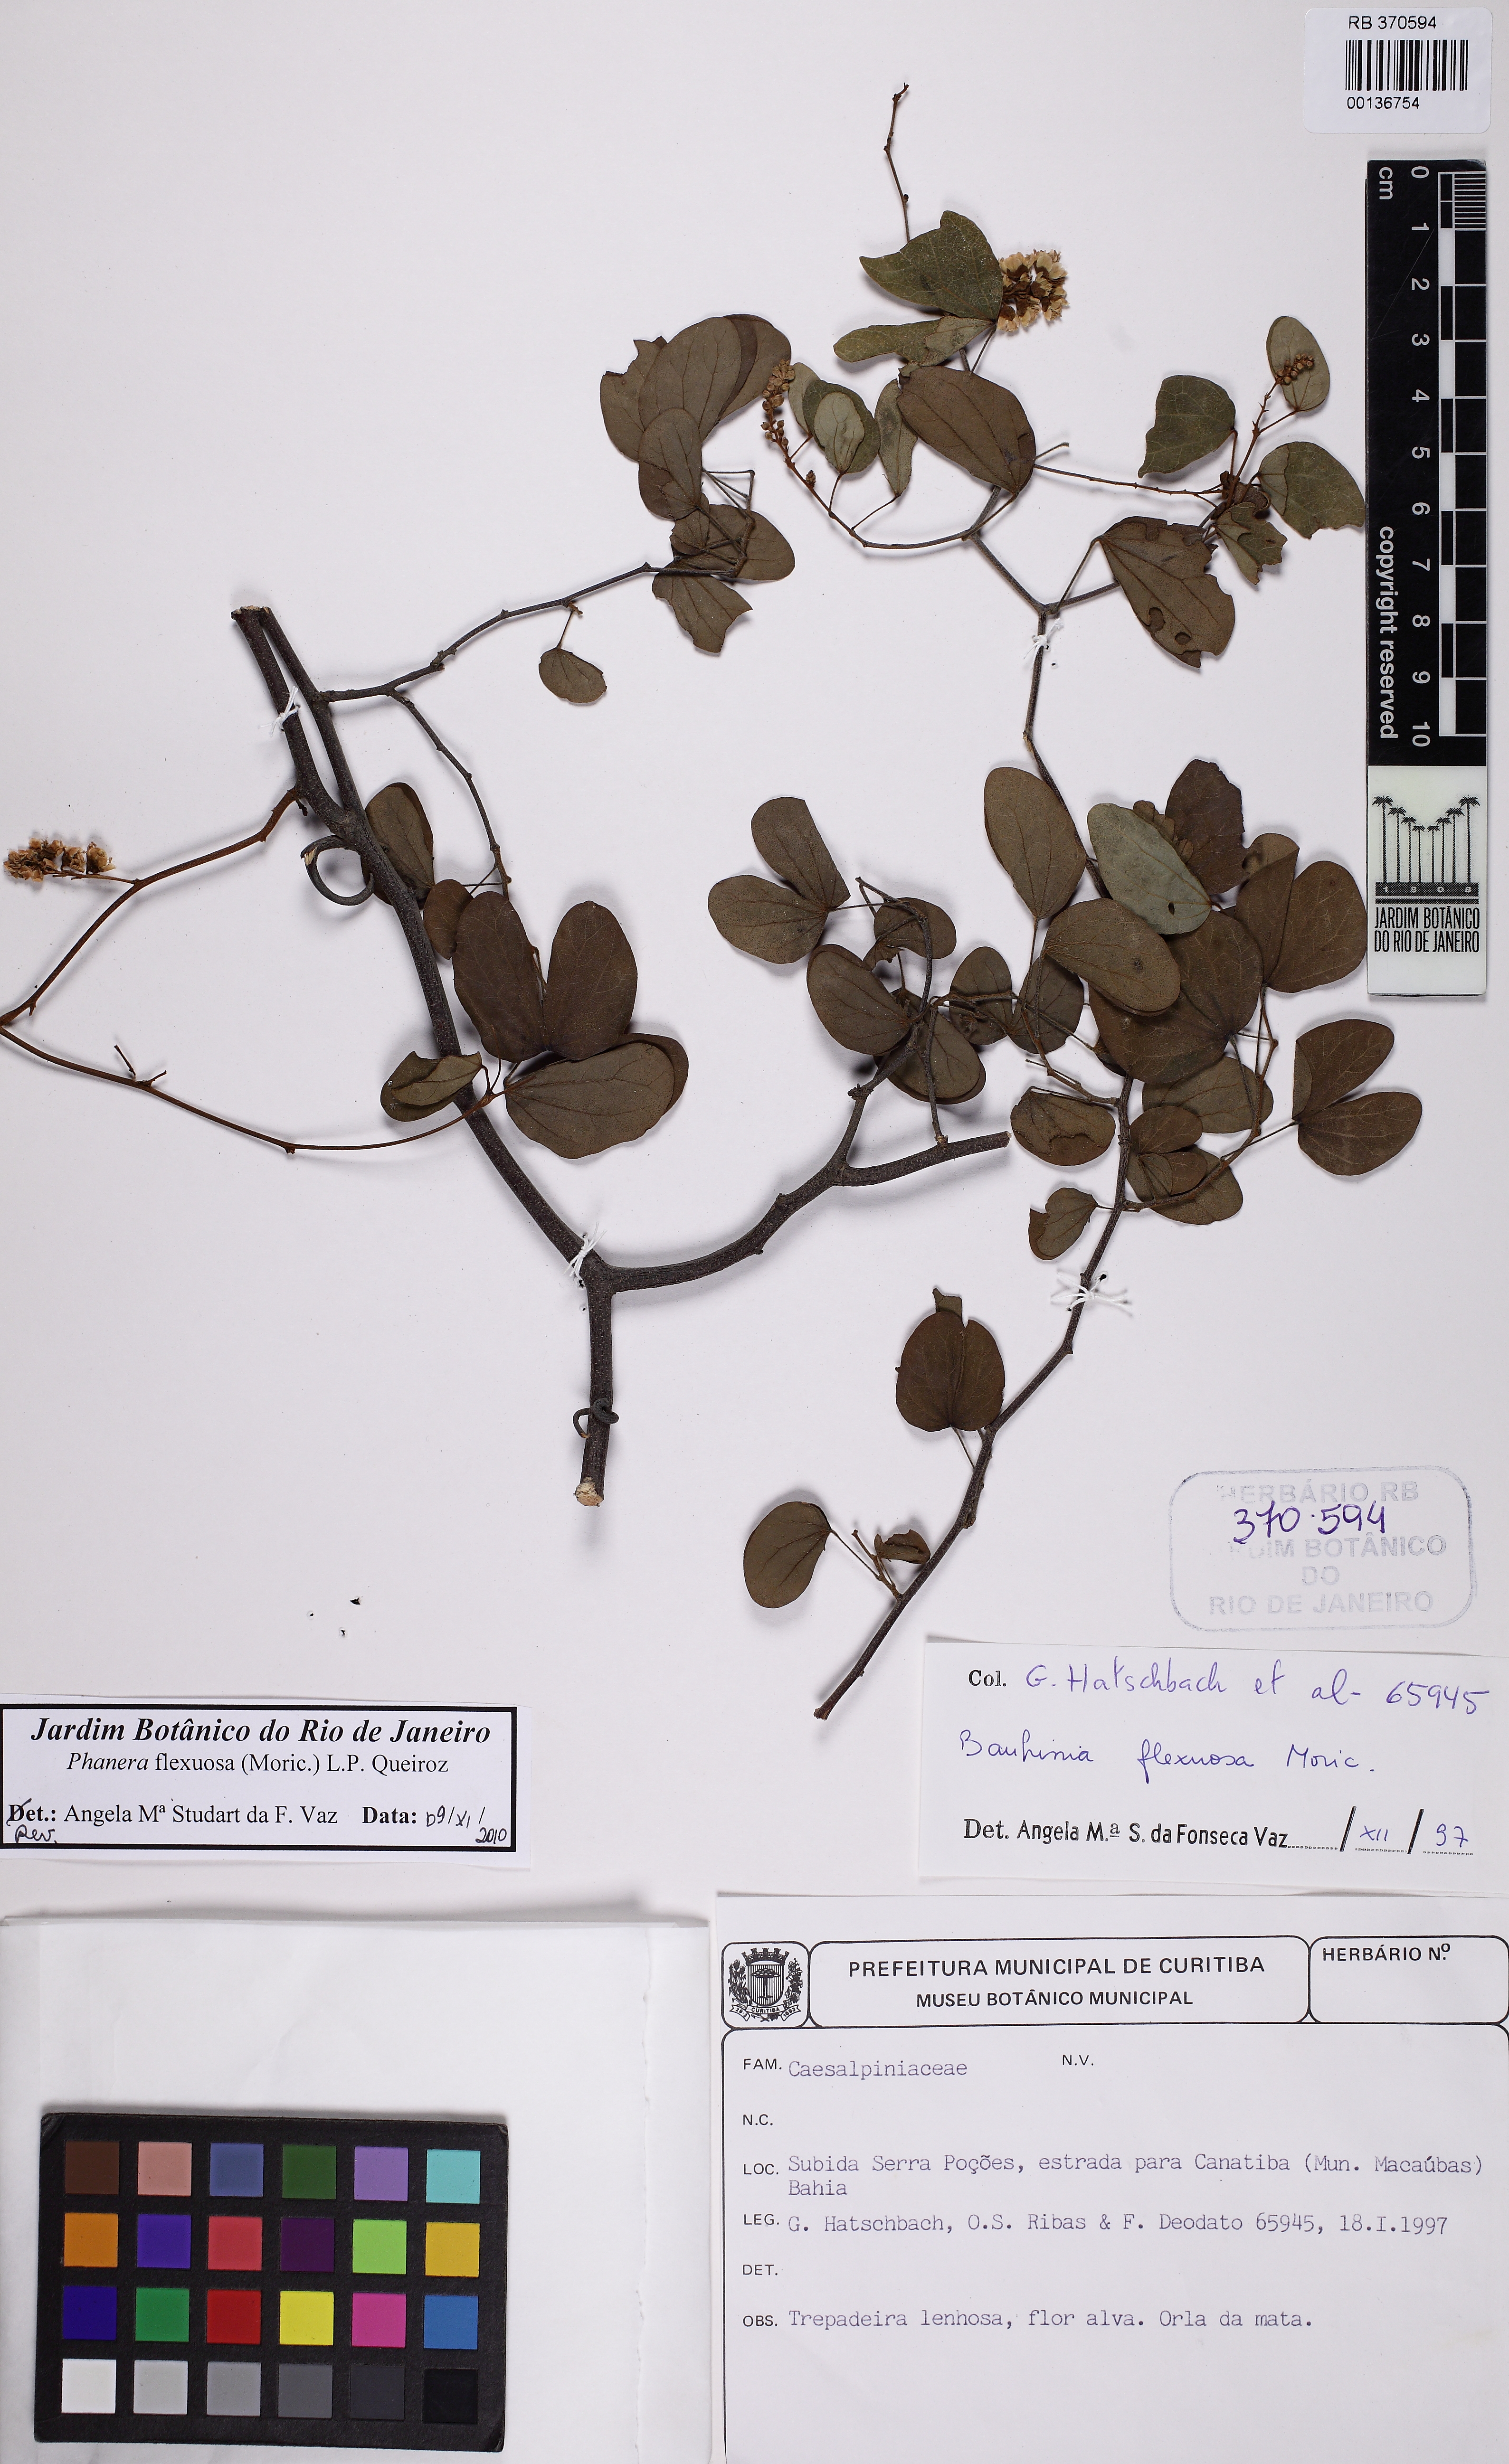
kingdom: Plantae
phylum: Tracheophyta
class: Magnoliopsida
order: Fabales
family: Fabaceae
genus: Schnella
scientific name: Schnella flexuosa
